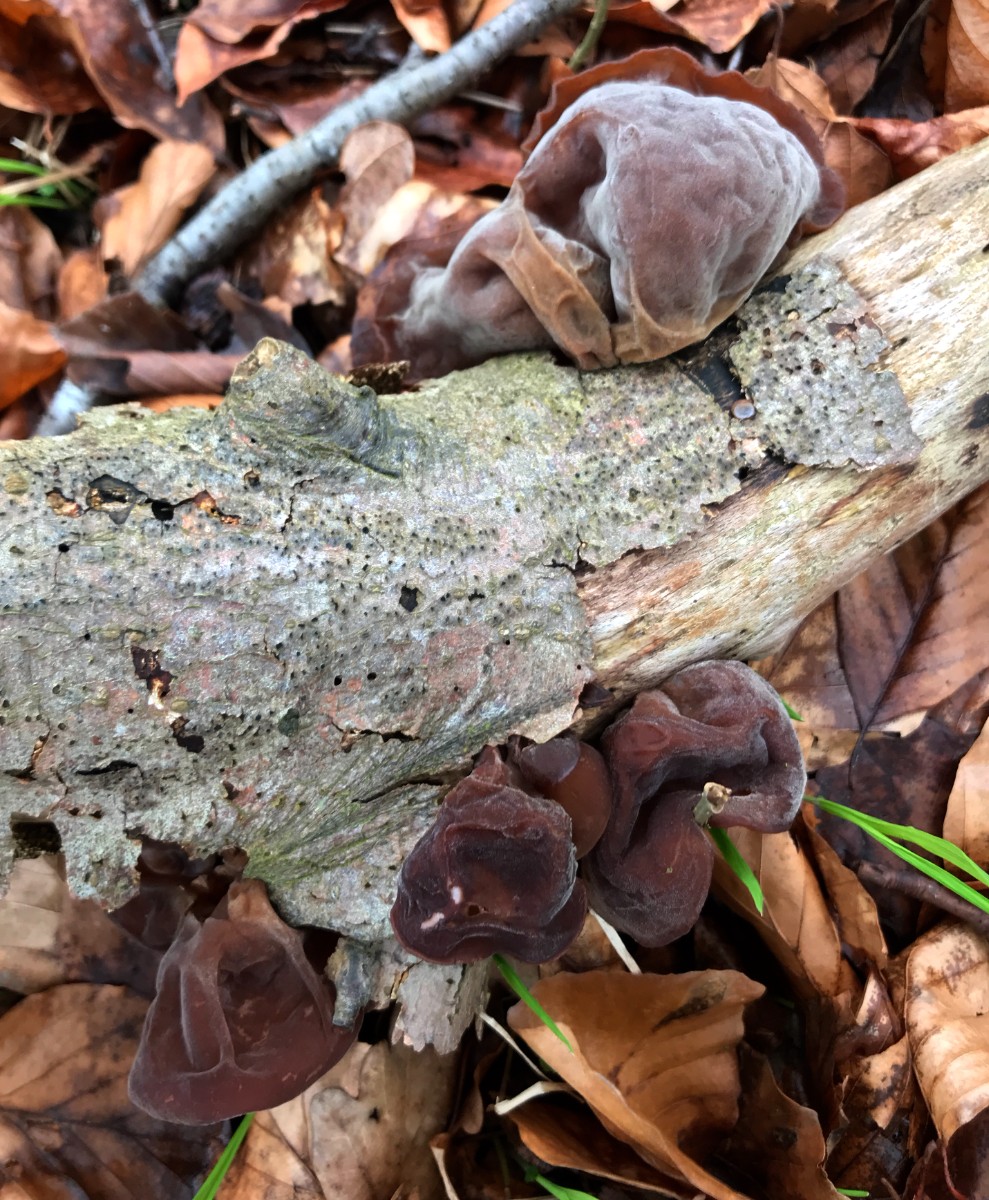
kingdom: Fungi
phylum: Basidiomycota
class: Agaricomycetes
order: Auriculariales
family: Auriculariaceae
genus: Auricularia
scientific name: Auricularia auricula-judae
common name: almindelig judasøre
